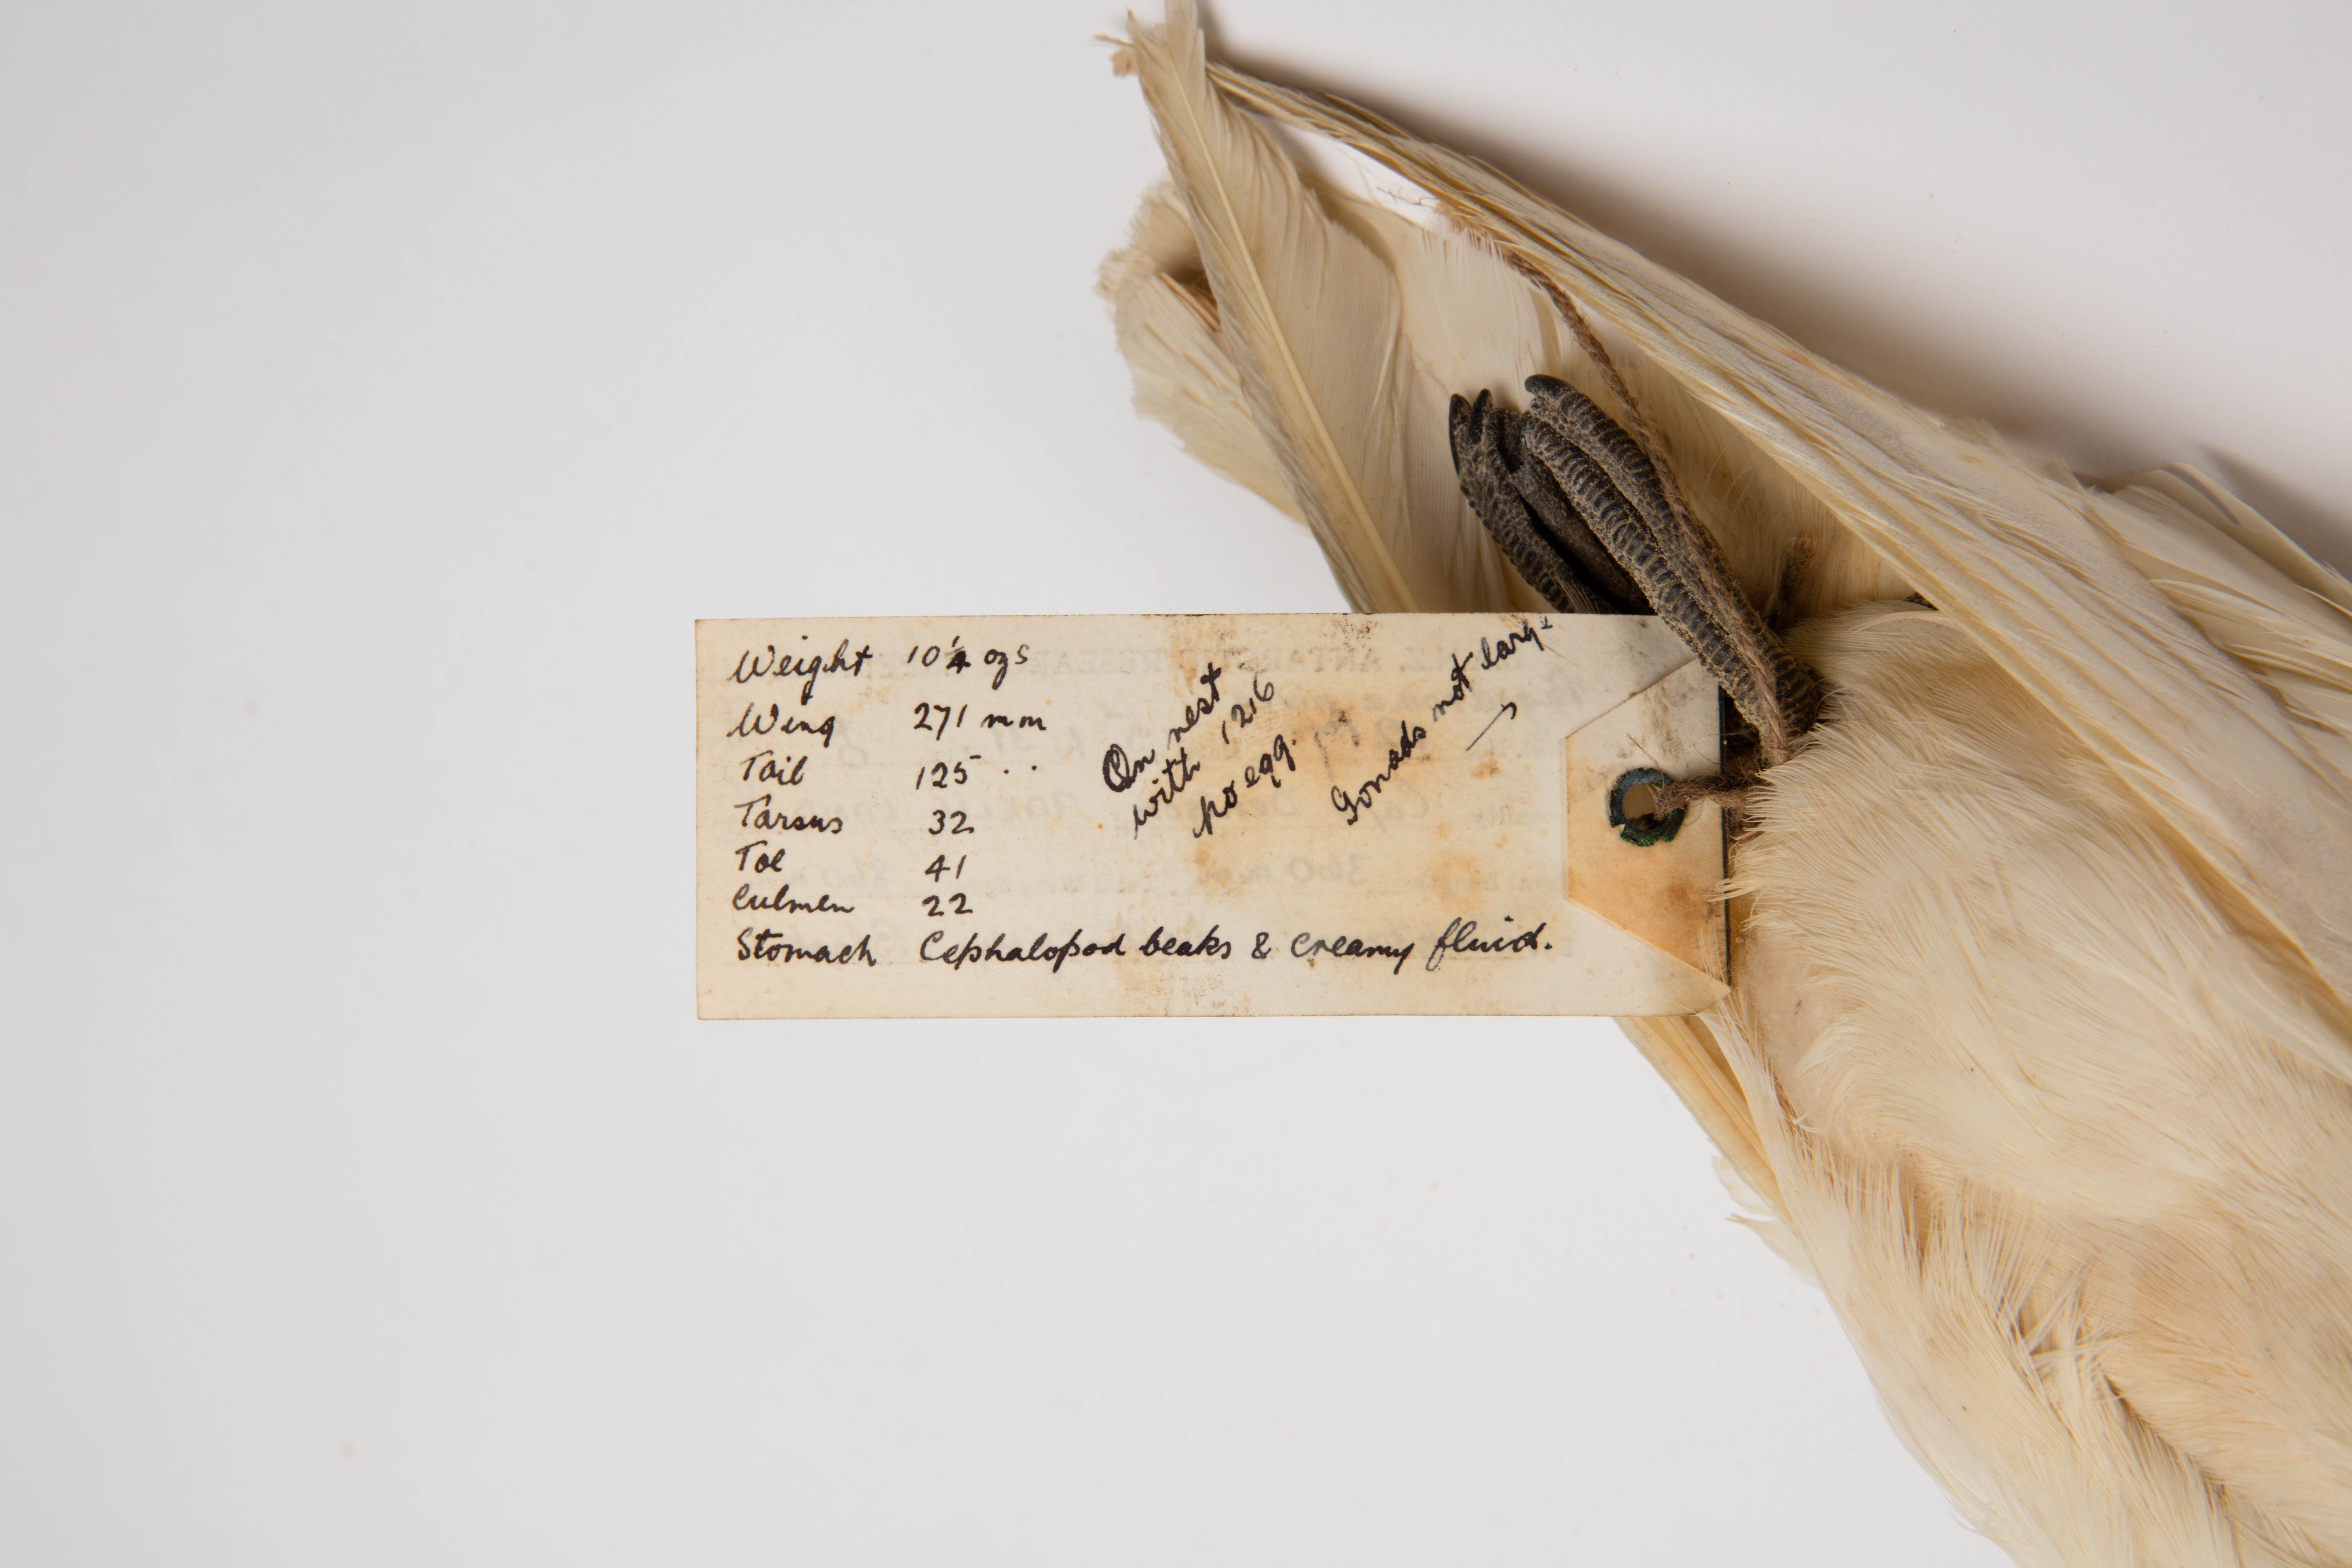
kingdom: Animalia
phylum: Chordata
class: Aves
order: Procellariiformes
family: Procellariidae
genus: Pagodroma
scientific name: Pagodroma nivea
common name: Snow petrel
